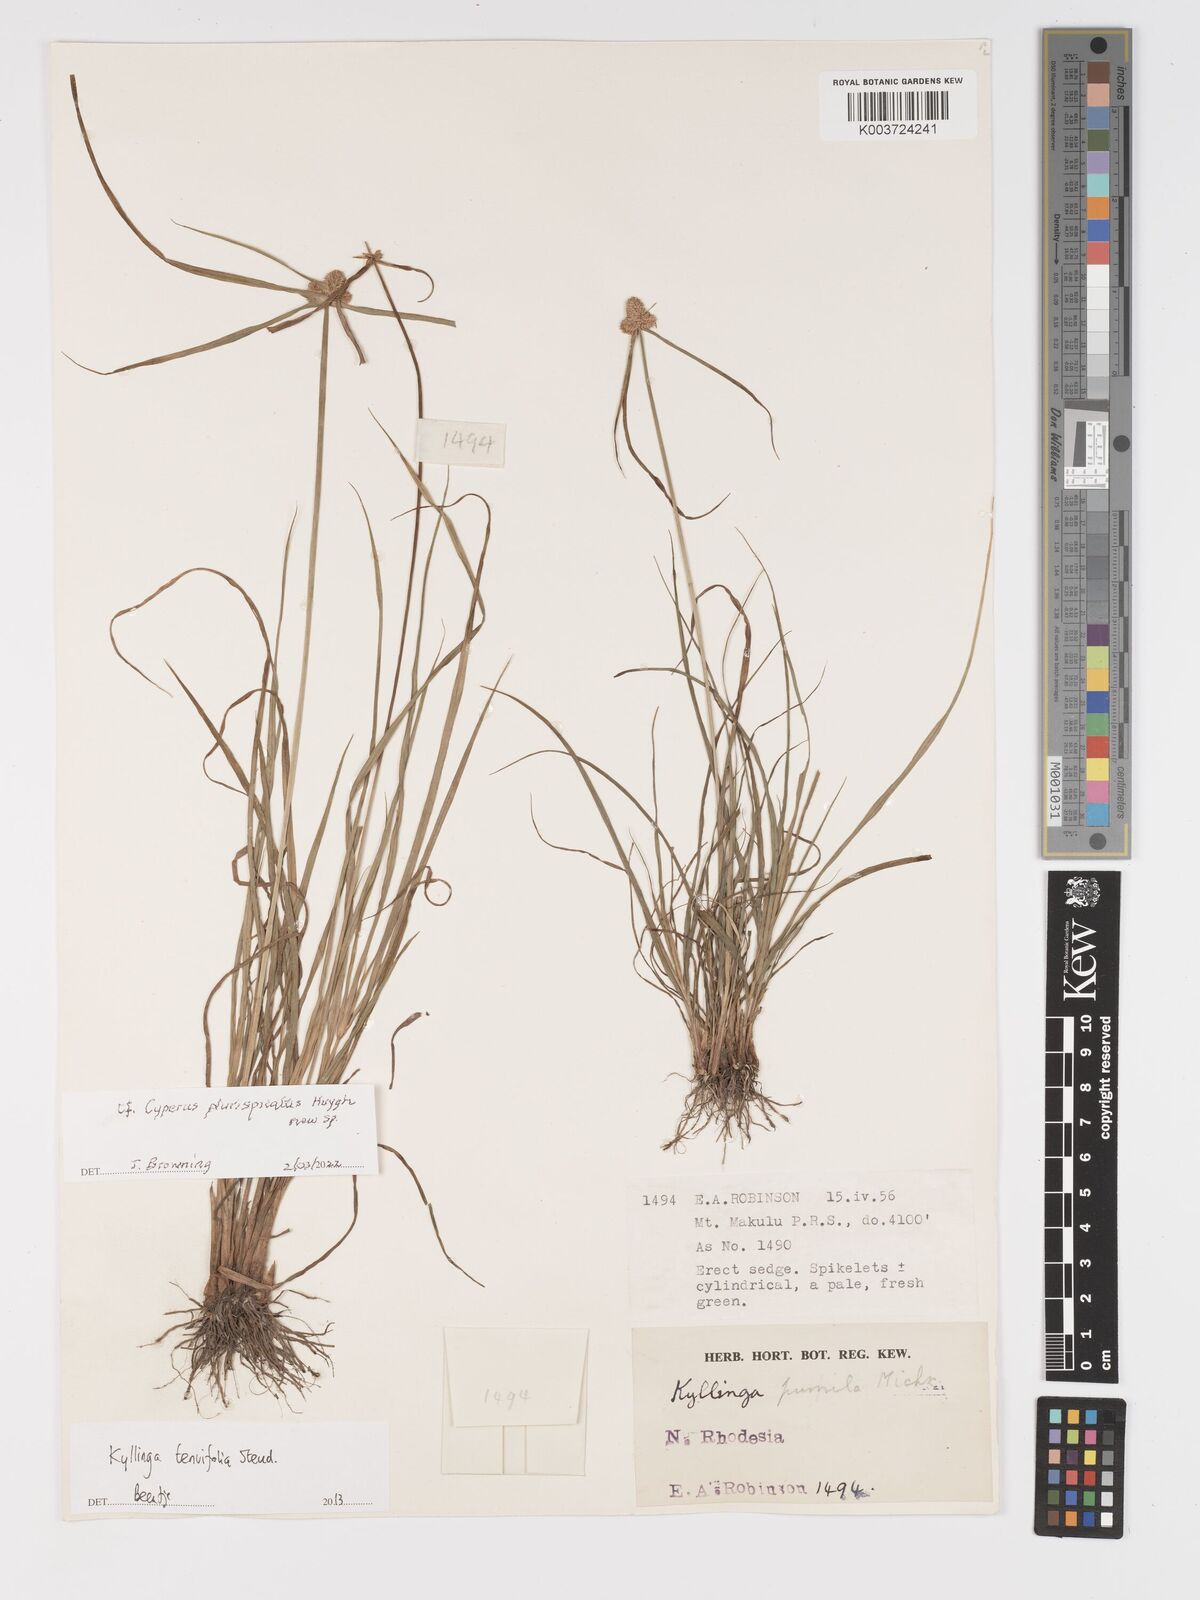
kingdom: Plantae
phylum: Tracheophyta
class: Liliopsida
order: Poales
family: Cyperaceae
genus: Cyperus
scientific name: Cyperus
